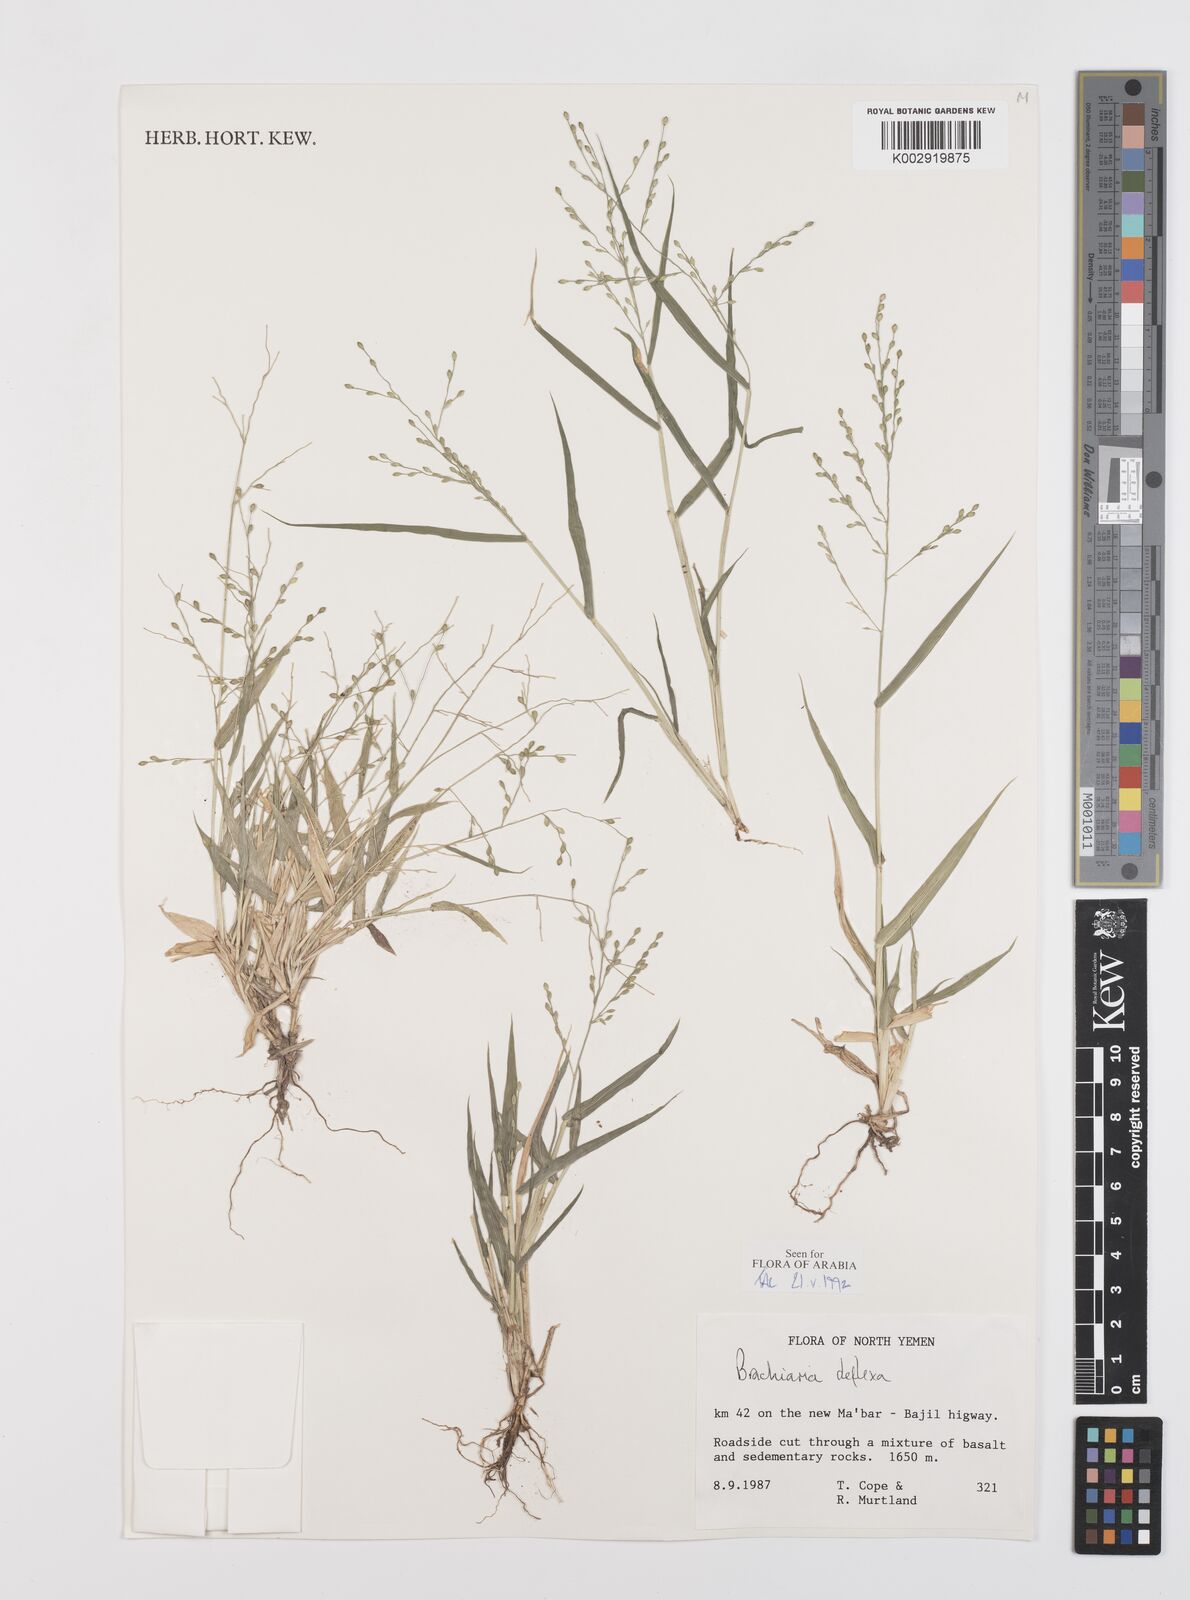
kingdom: Plantae
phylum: Tracheophyta
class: Liliopsida
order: Poales
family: Poaceae
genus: Urochloa
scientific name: Urochloa deflexa
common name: Guinea millet
